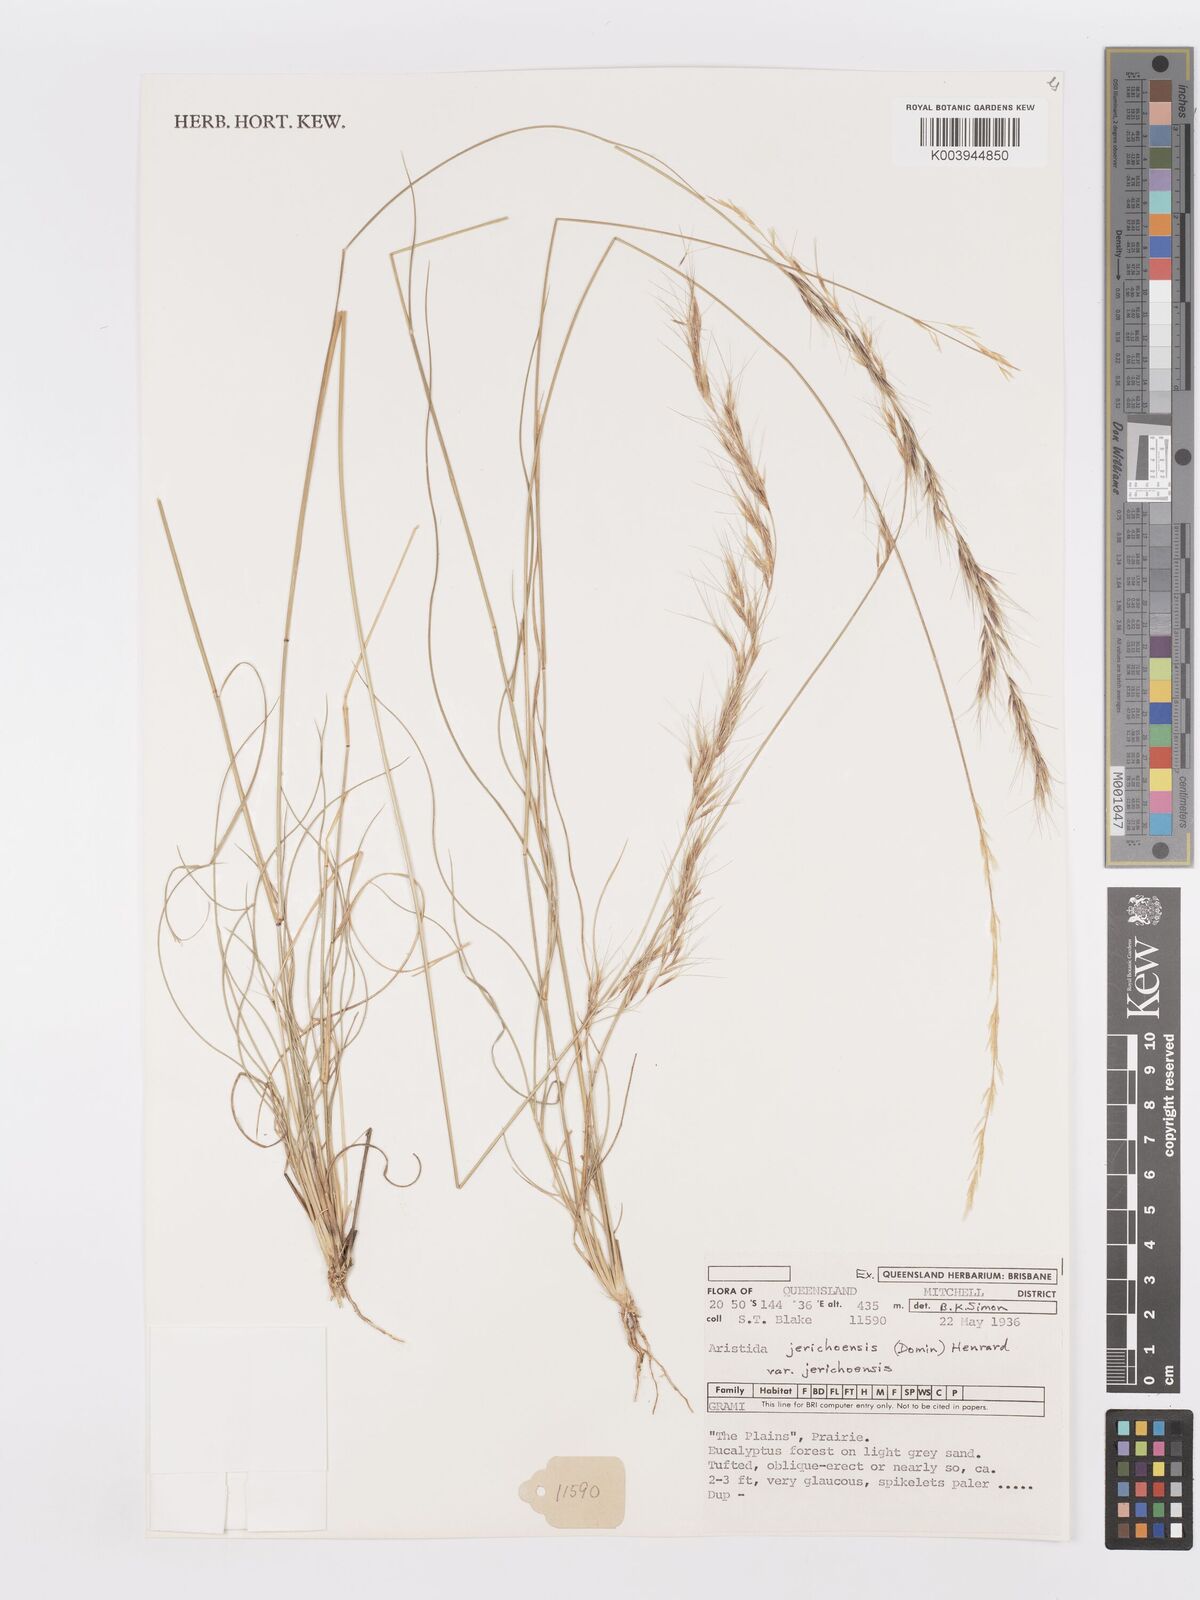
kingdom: Plantae
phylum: Tracheophyta
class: Liliopsida
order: Poales
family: Poaceae
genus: Aristida
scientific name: Aristida jerichoensis
